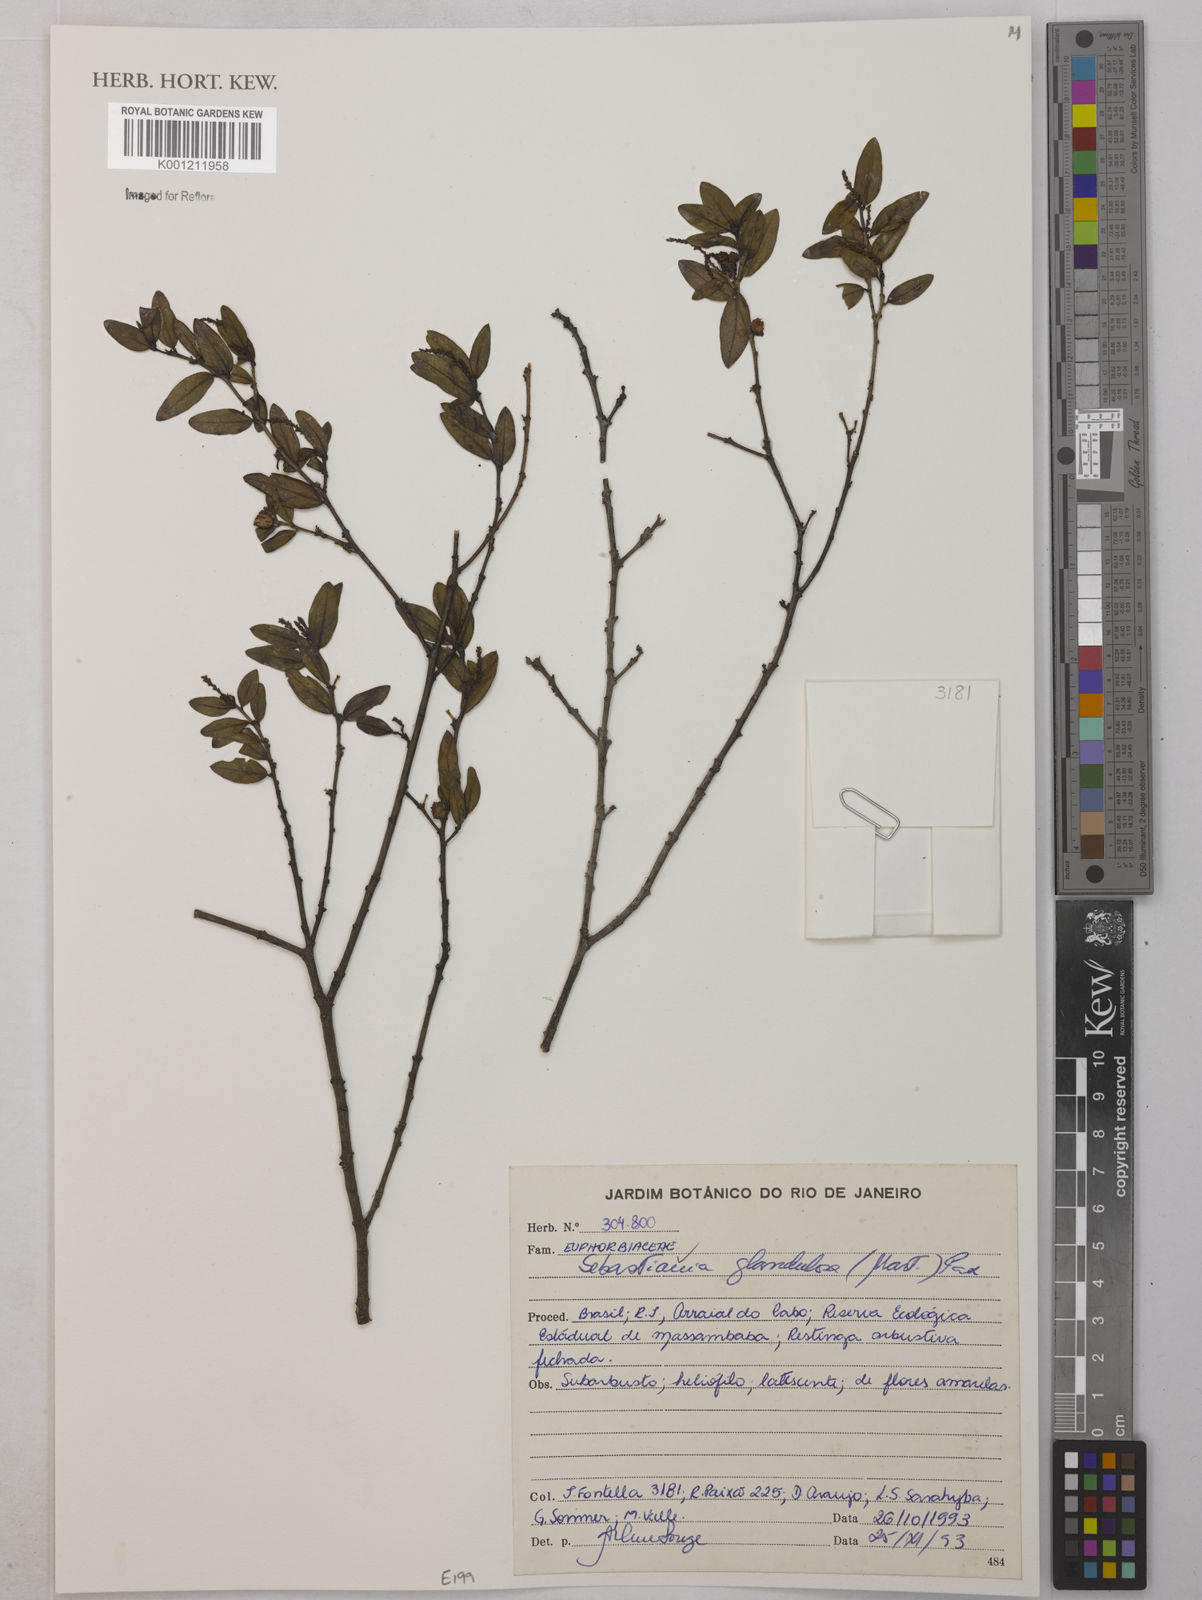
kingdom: Plantae
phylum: Tracheophyta
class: Magnoliopsida
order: Malpighiales
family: Euphorbiaceae
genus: Sebastiania
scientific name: Sebastiania
